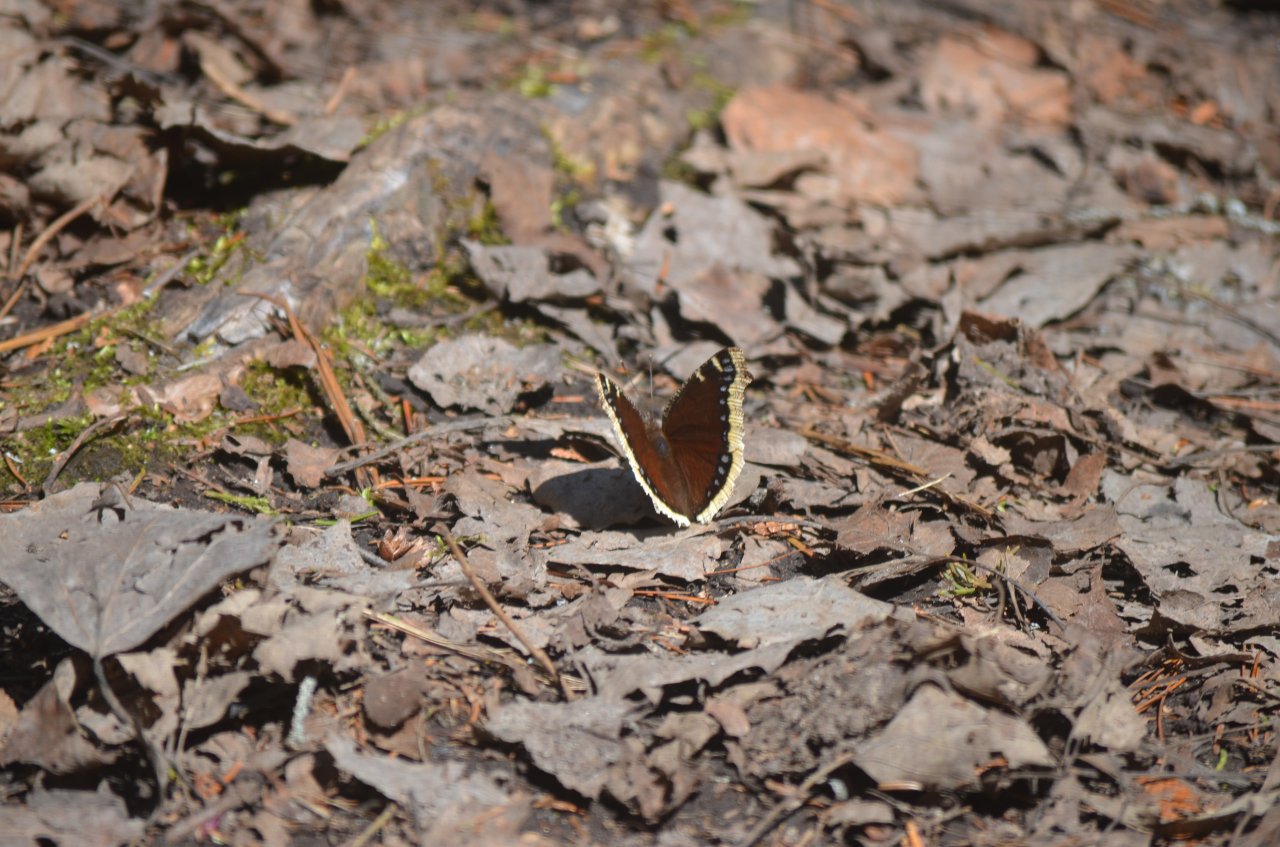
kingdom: Animalia
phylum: Arthropoda
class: Insecta
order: Lepidoptera
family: Nymphalidae
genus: Nymphalis
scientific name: Nymphalis antiopa
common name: Mourning Cloak
